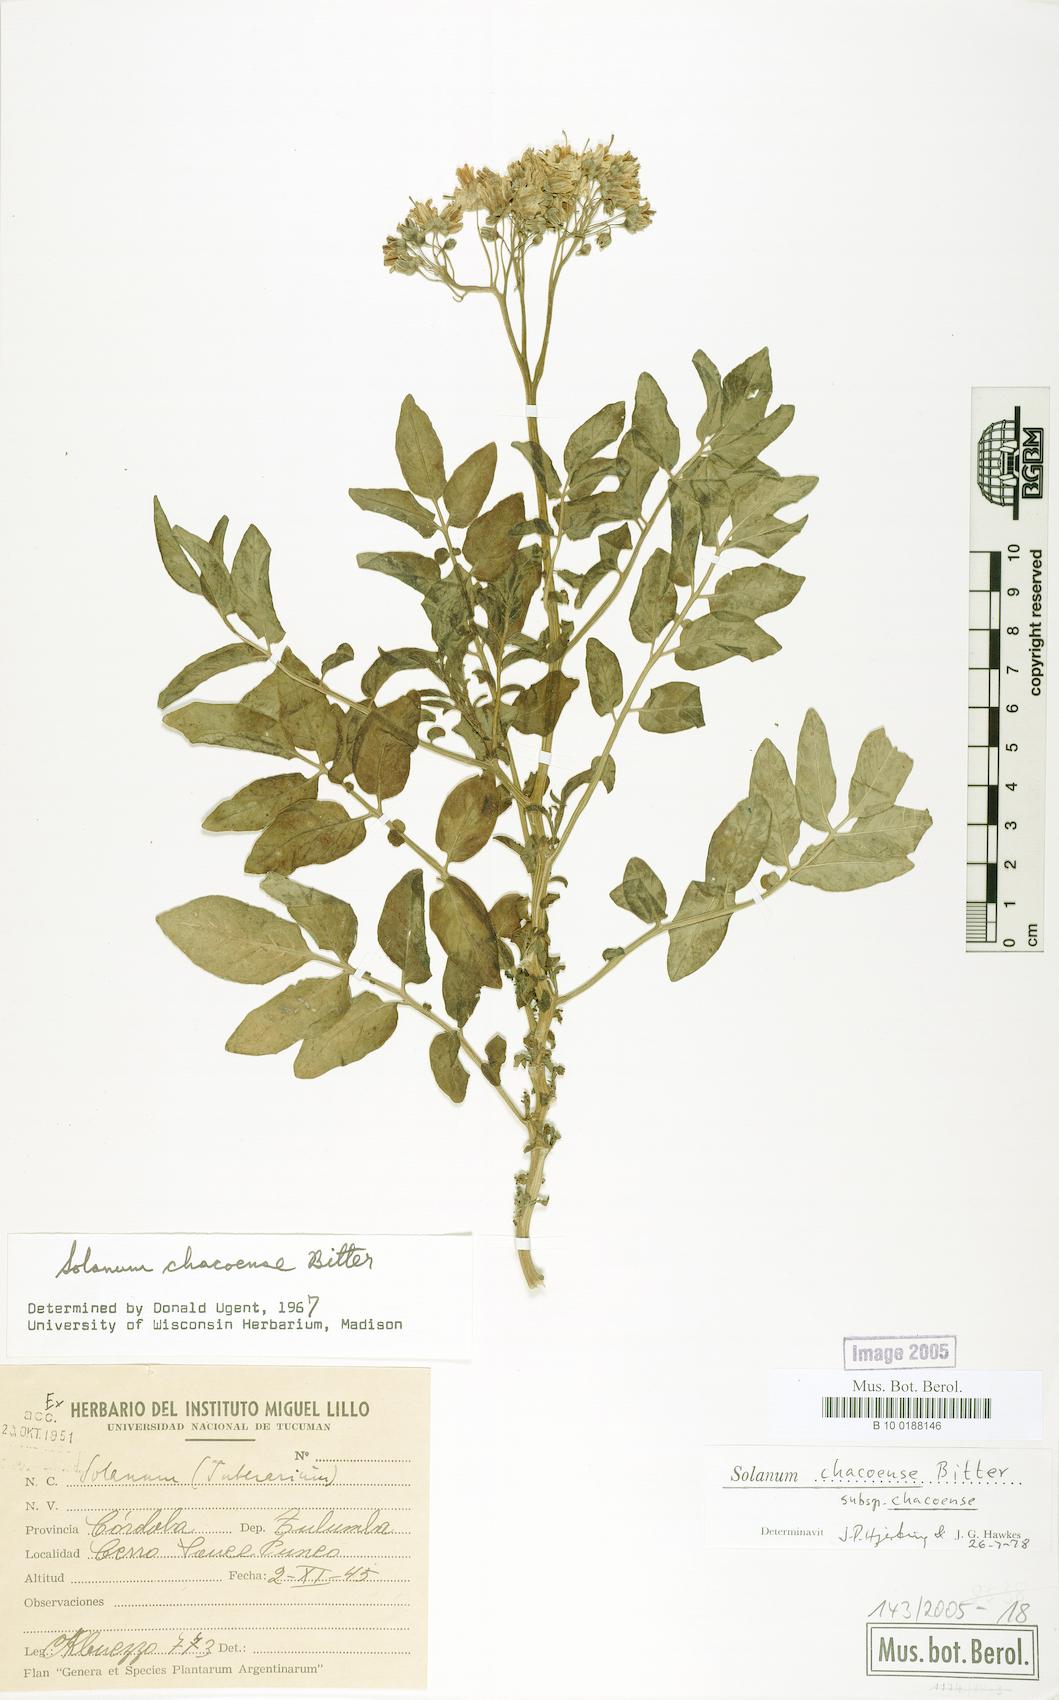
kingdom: Plantae
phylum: Tracheophyta
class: Magnoliopsida
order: Solanales
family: Solanaceae
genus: Solanum
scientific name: Solanum chacoense
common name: Chaco potato
